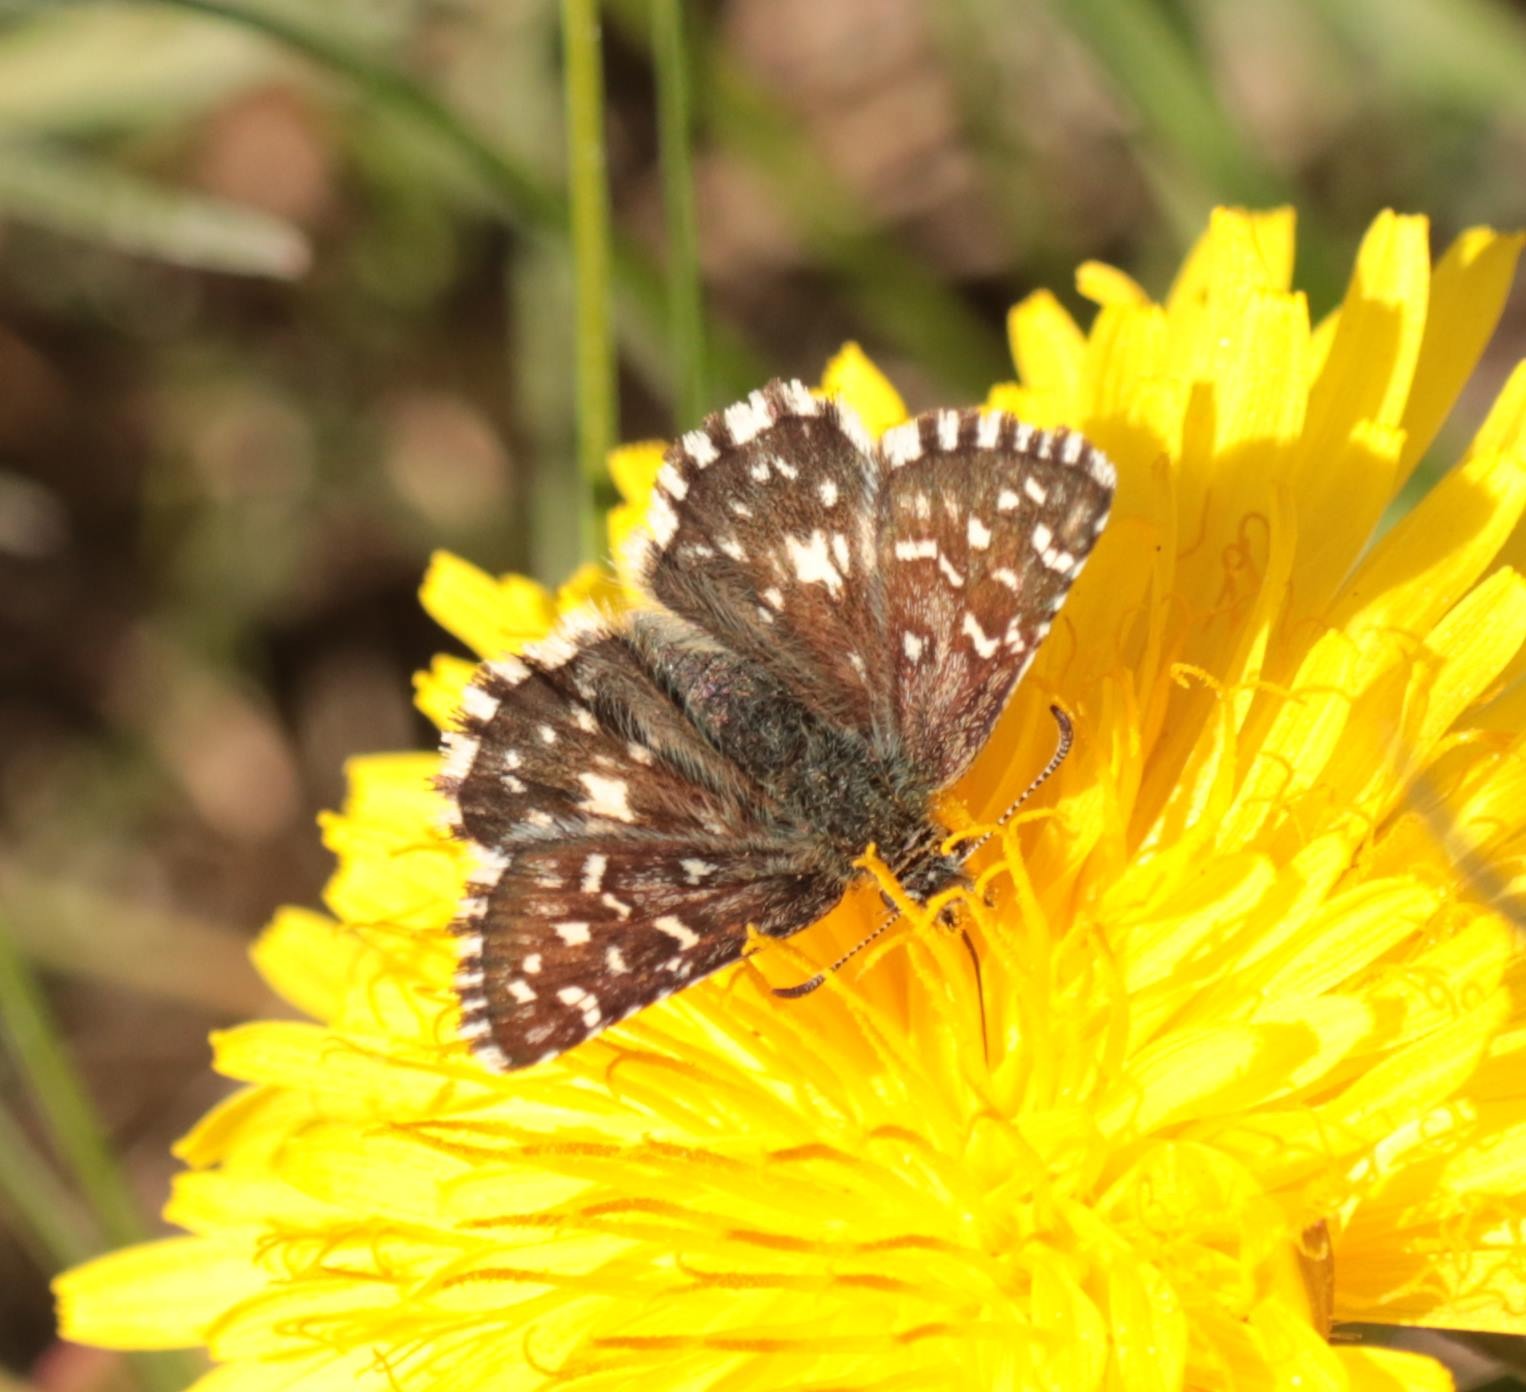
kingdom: Animalia
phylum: Arthropoda
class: Insecta
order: Lepidoptera
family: Hesperiidae
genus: Pyrgus
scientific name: Pyrgus malvae
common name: Spættet bredpande
